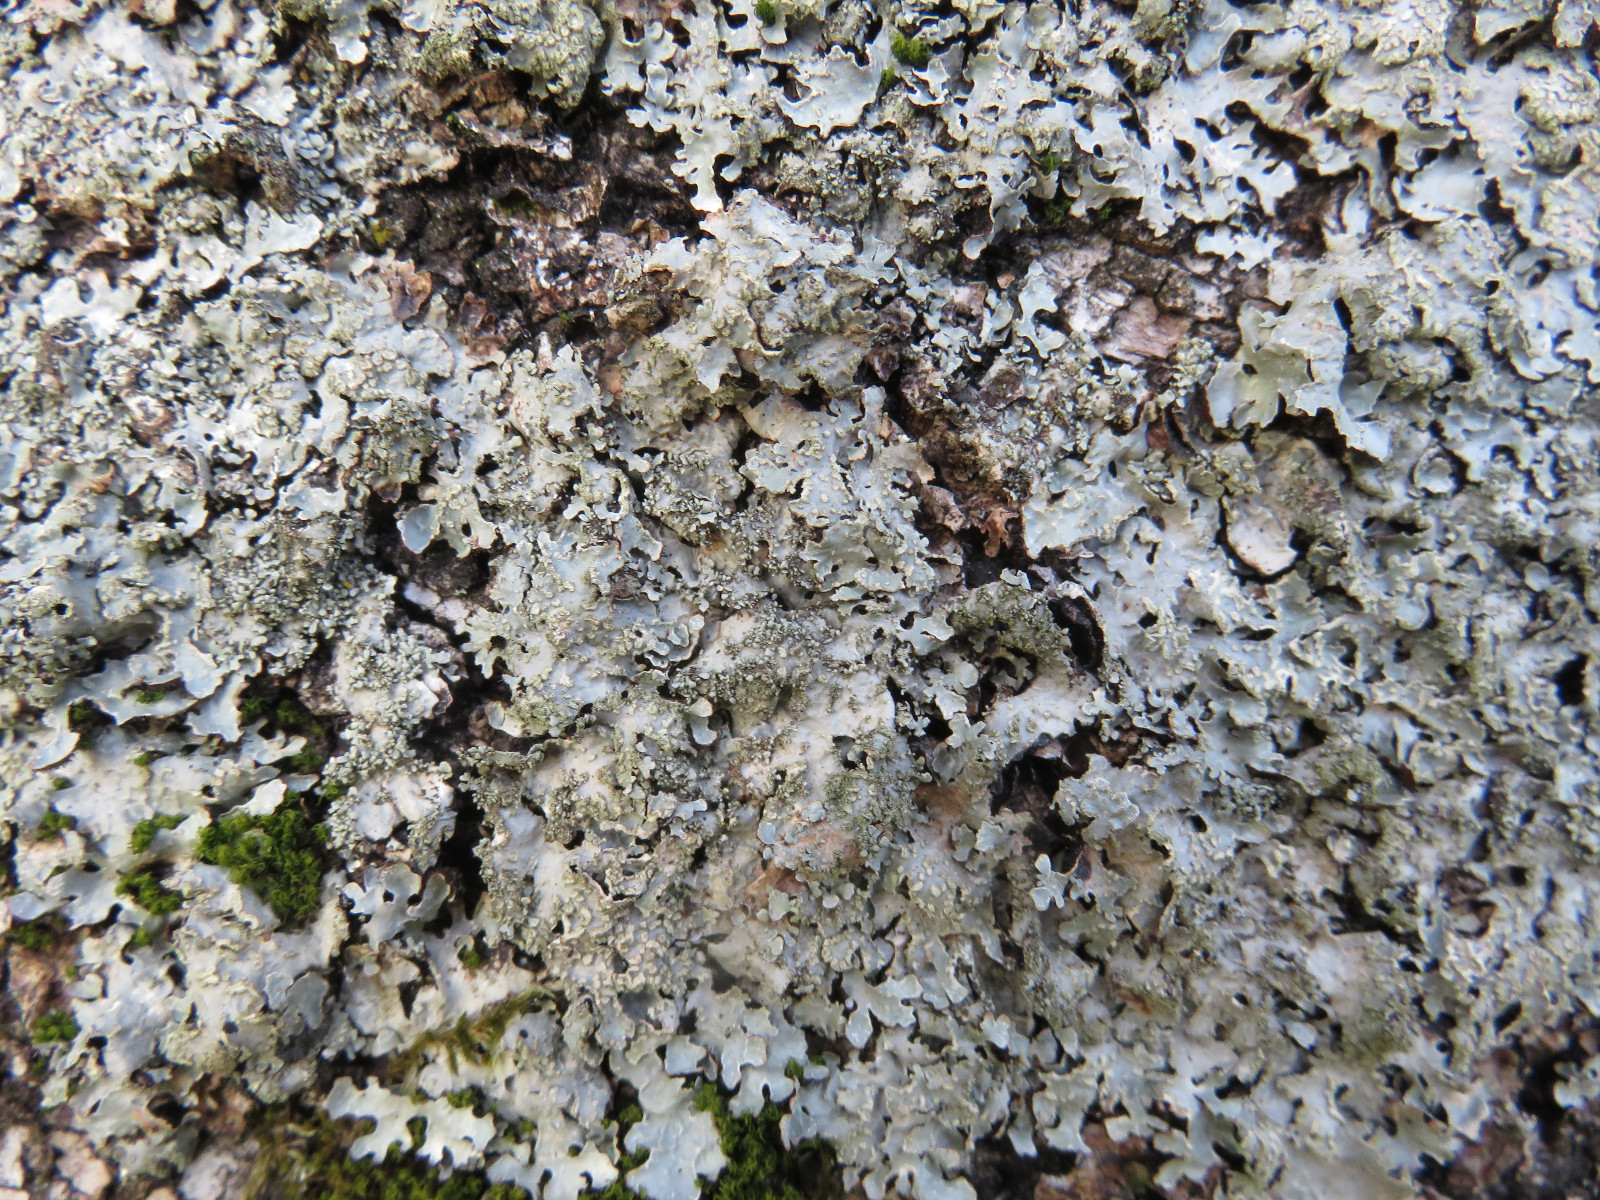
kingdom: Fungi
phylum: Ascomycota
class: Lecanoromycetes
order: Lecanorales
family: Parmeliaceae
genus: Parmelia
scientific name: Parmelia sulcata
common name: rynket skållav
